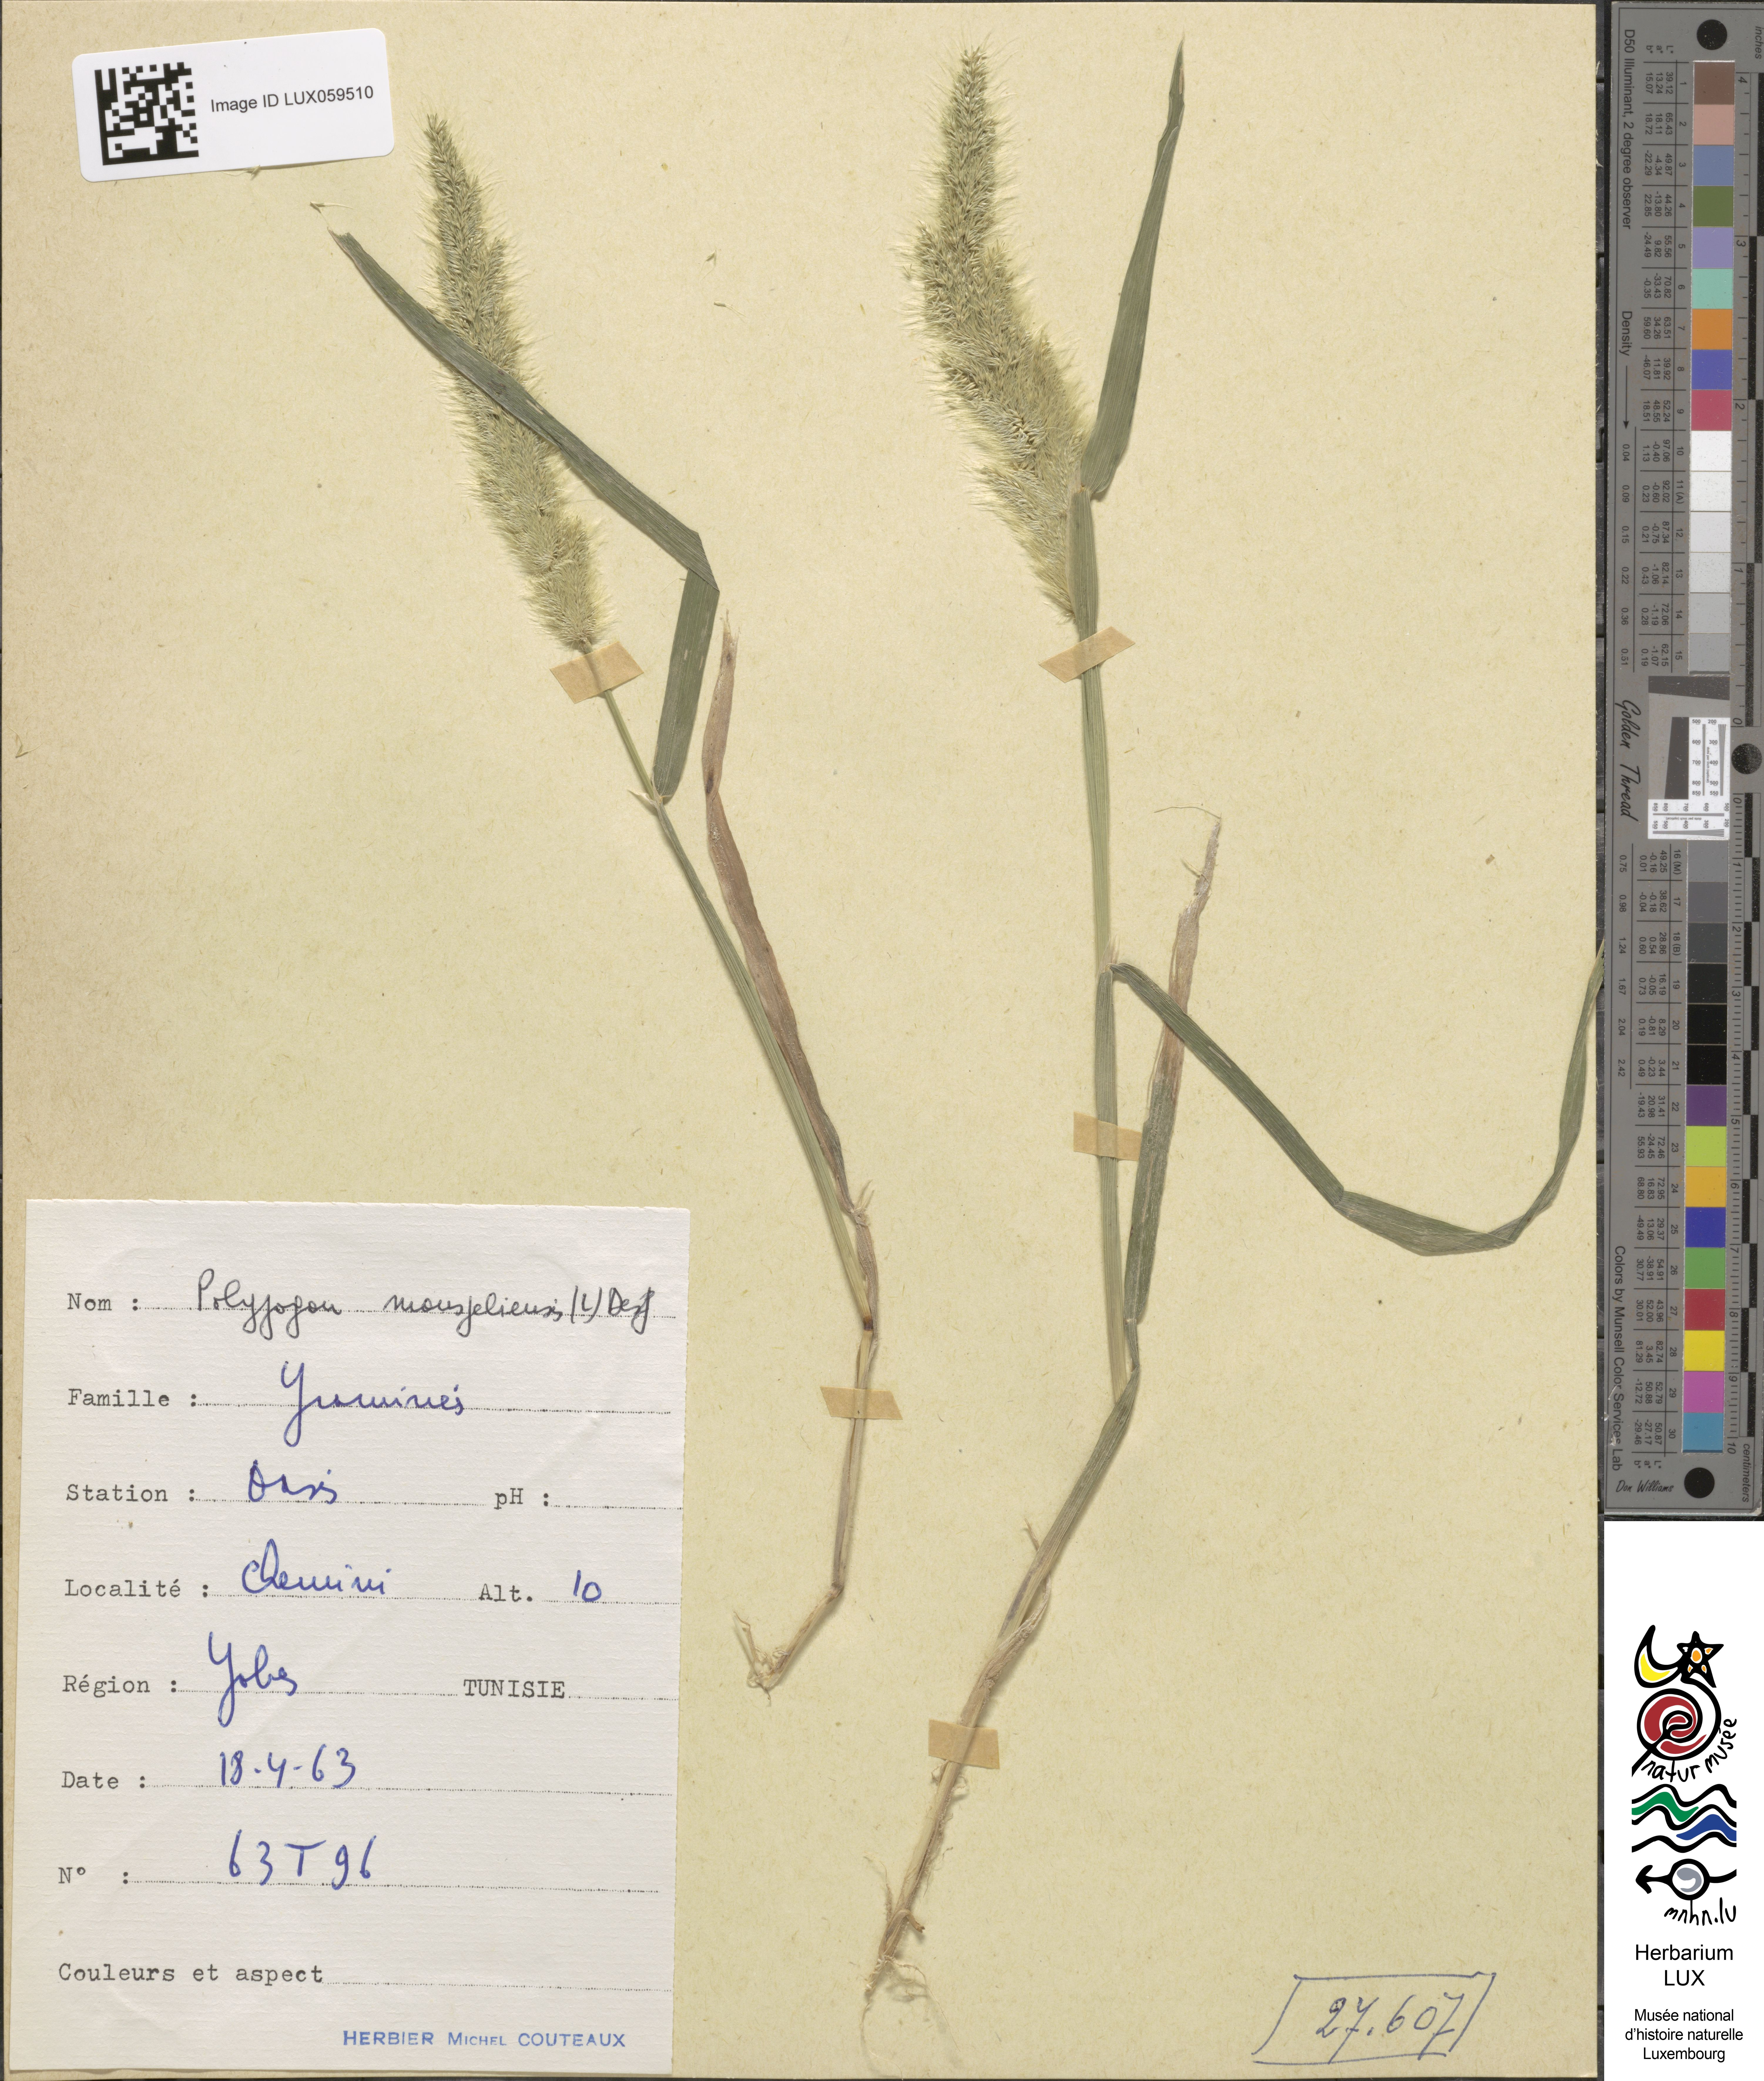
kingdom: Animalia
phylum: Arthropoda
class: Insecta
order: Lepidoptera
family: Erebidae
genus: Polypogon
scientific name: Polypogon
